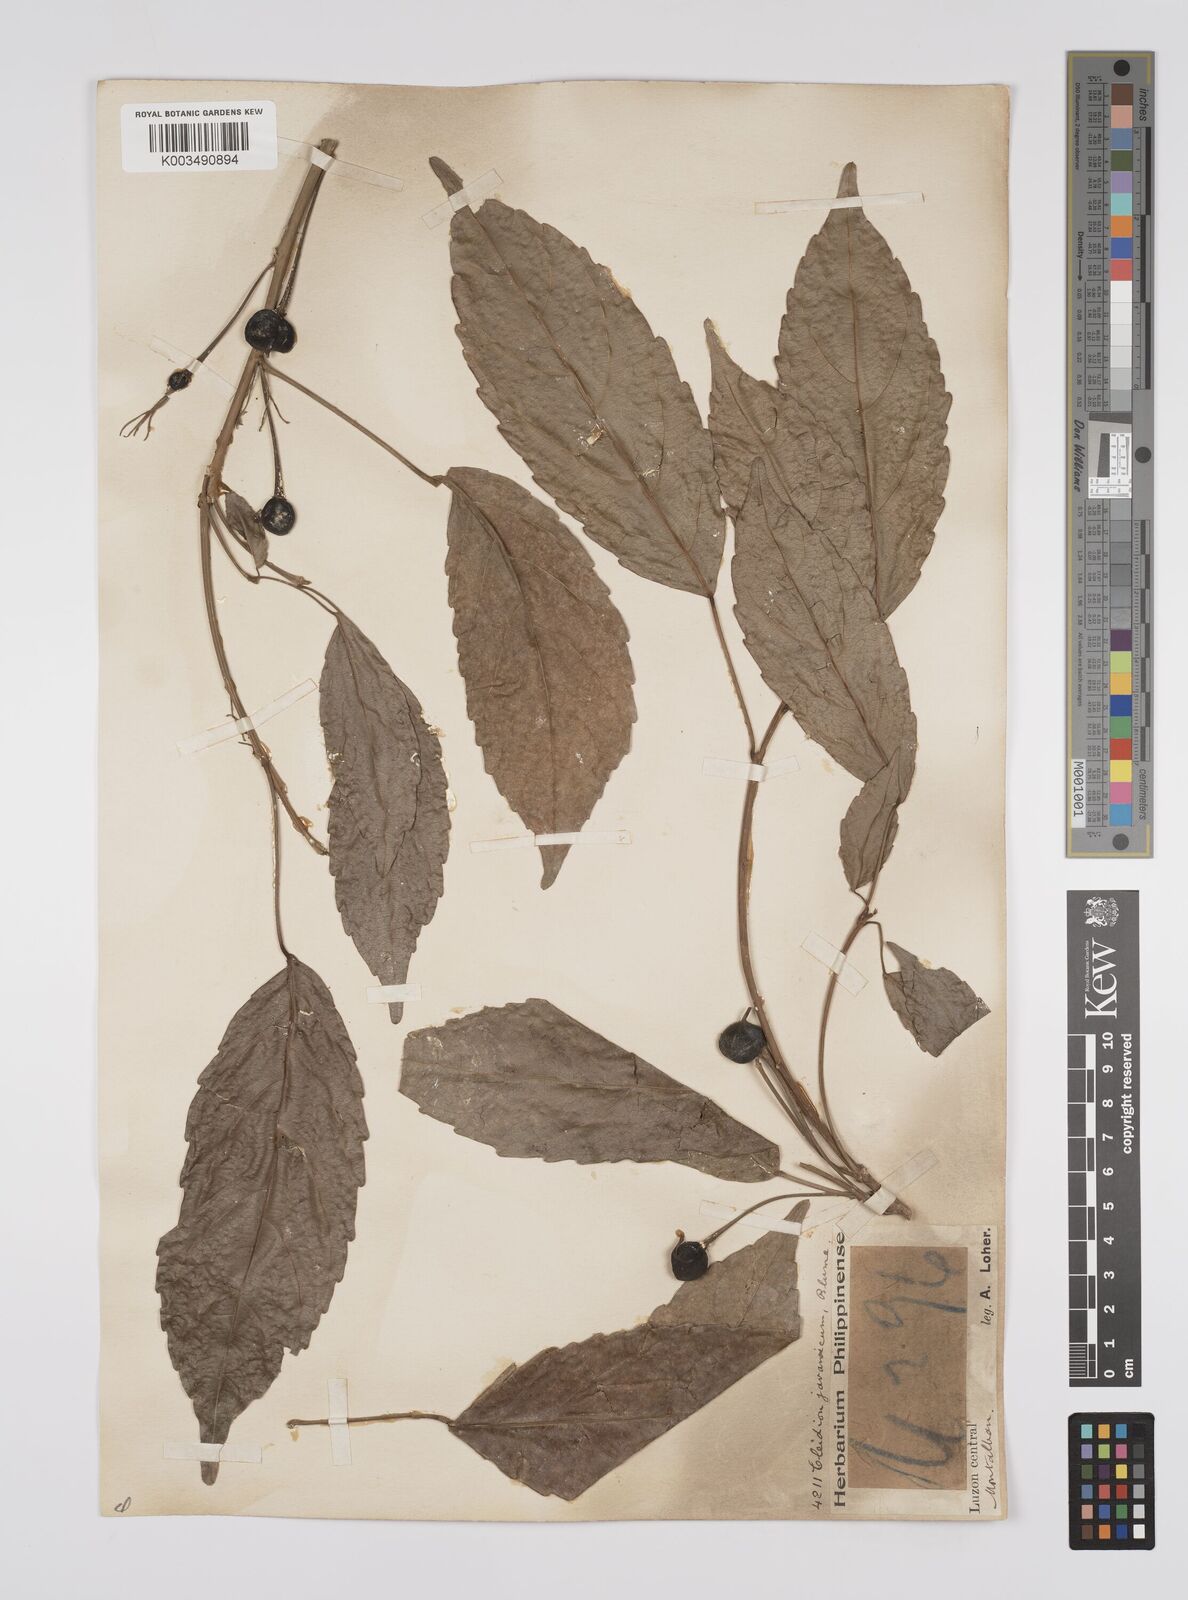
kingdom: Plantae
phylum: Tracheophyta
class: Magnoliopsida
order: Malpighiales
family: Euphorbiaceae
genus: Cleidion
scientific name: Cleidion javanicum
